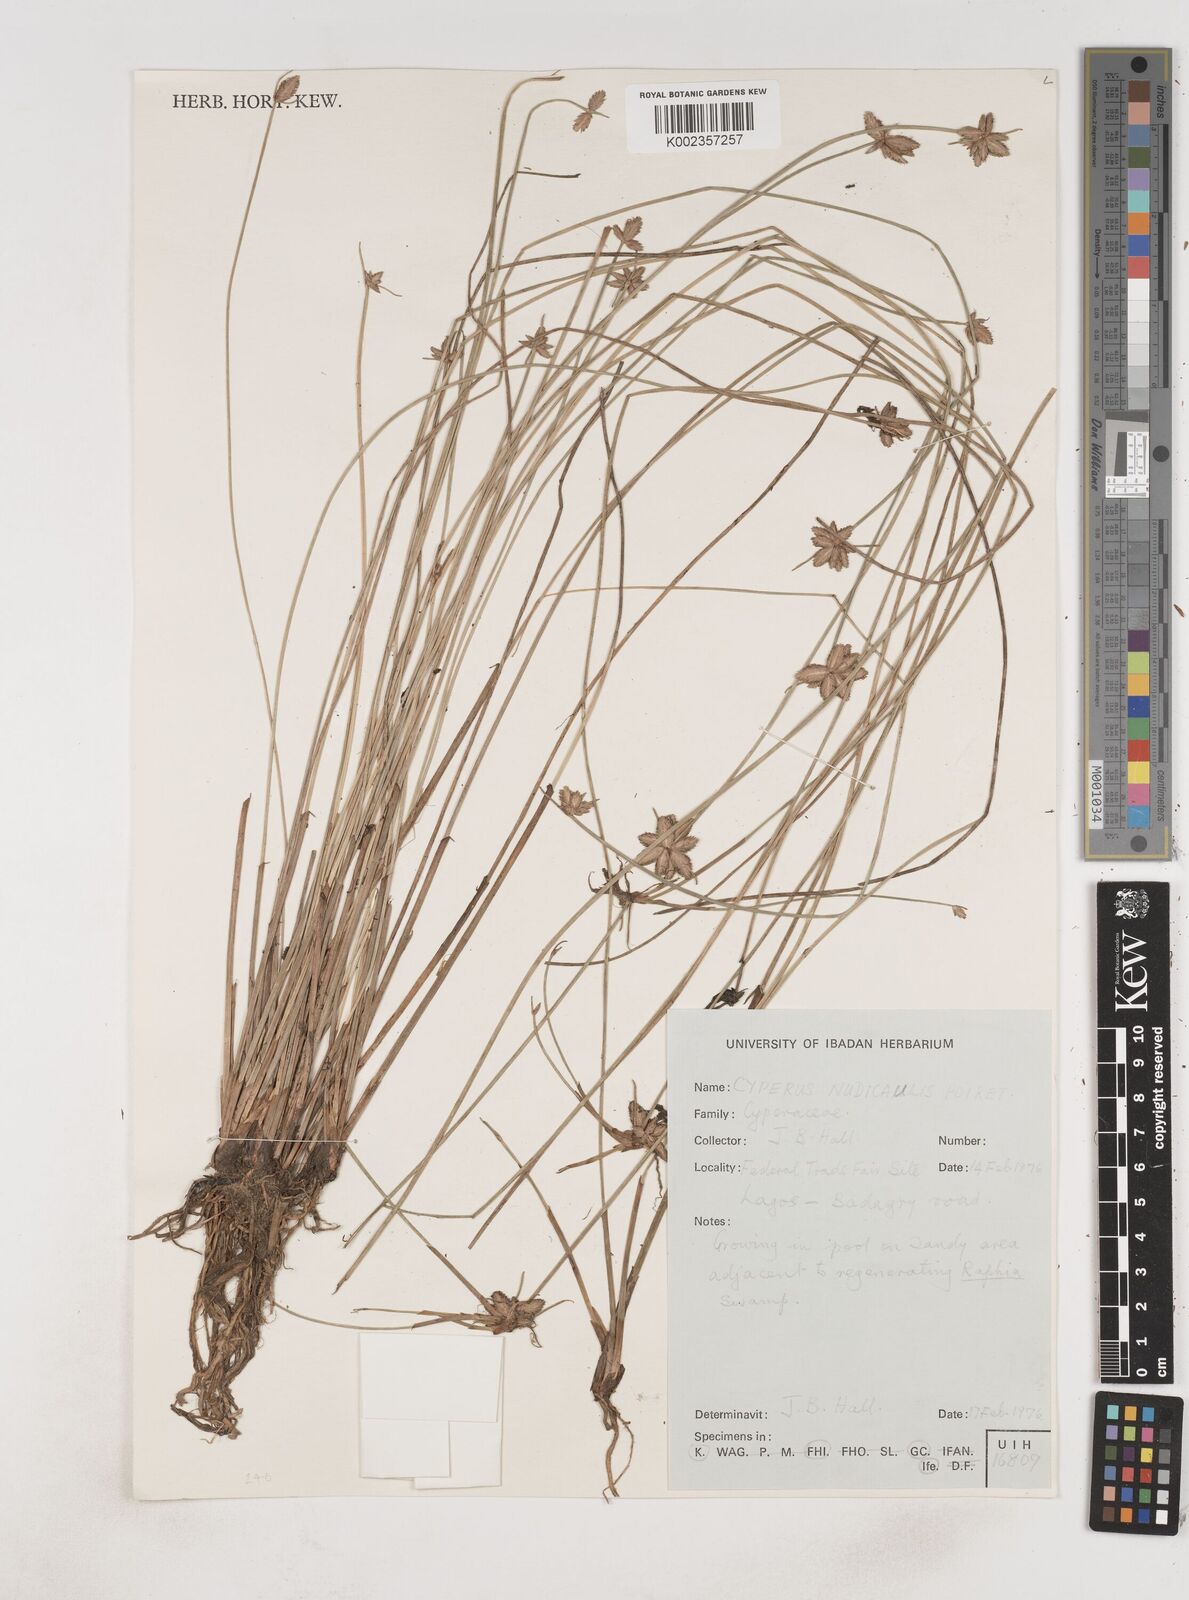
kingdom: Plantae
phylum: Tracheophyta
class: Liliopsida
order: Poales
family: Cyperaceae
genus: Cyperus
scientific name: Cyperus pectinatus
